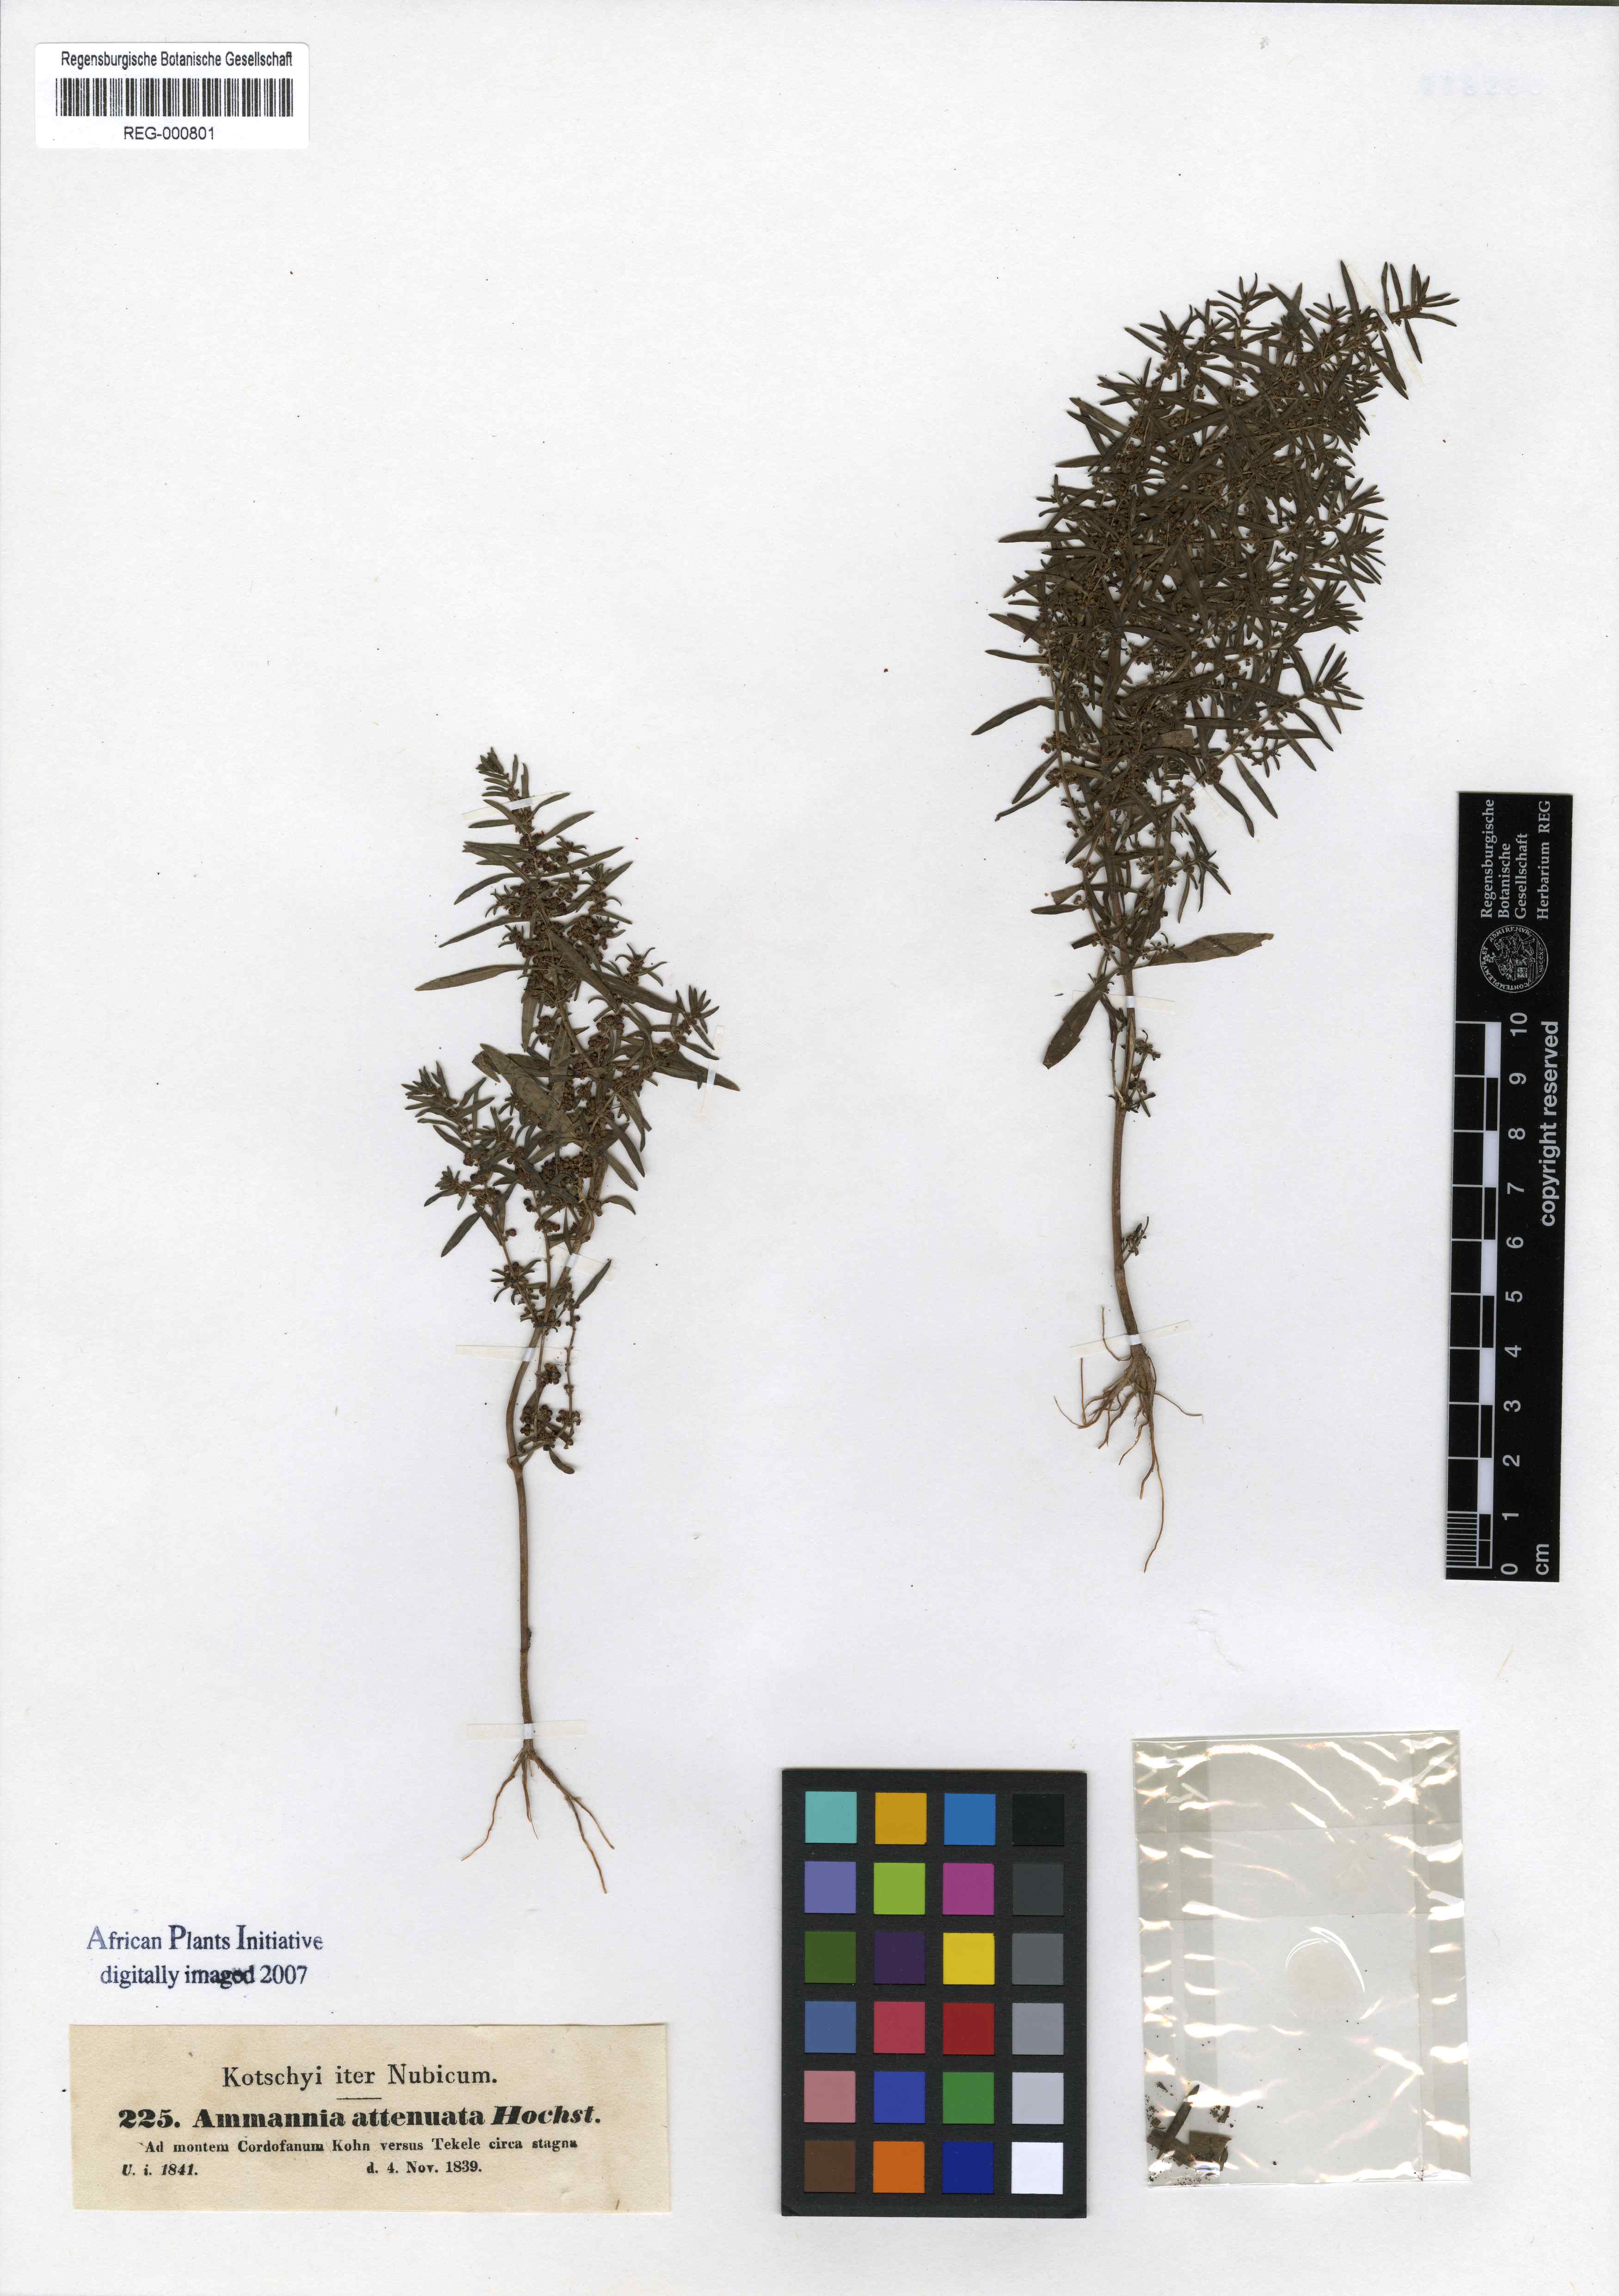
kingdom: Plantae
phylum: Tracheophyta
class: Magnoliopsida
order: Myrtales
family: Lythraceae
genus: Ammannia
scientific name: Ammannia baccifera
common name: Blistering ammania
